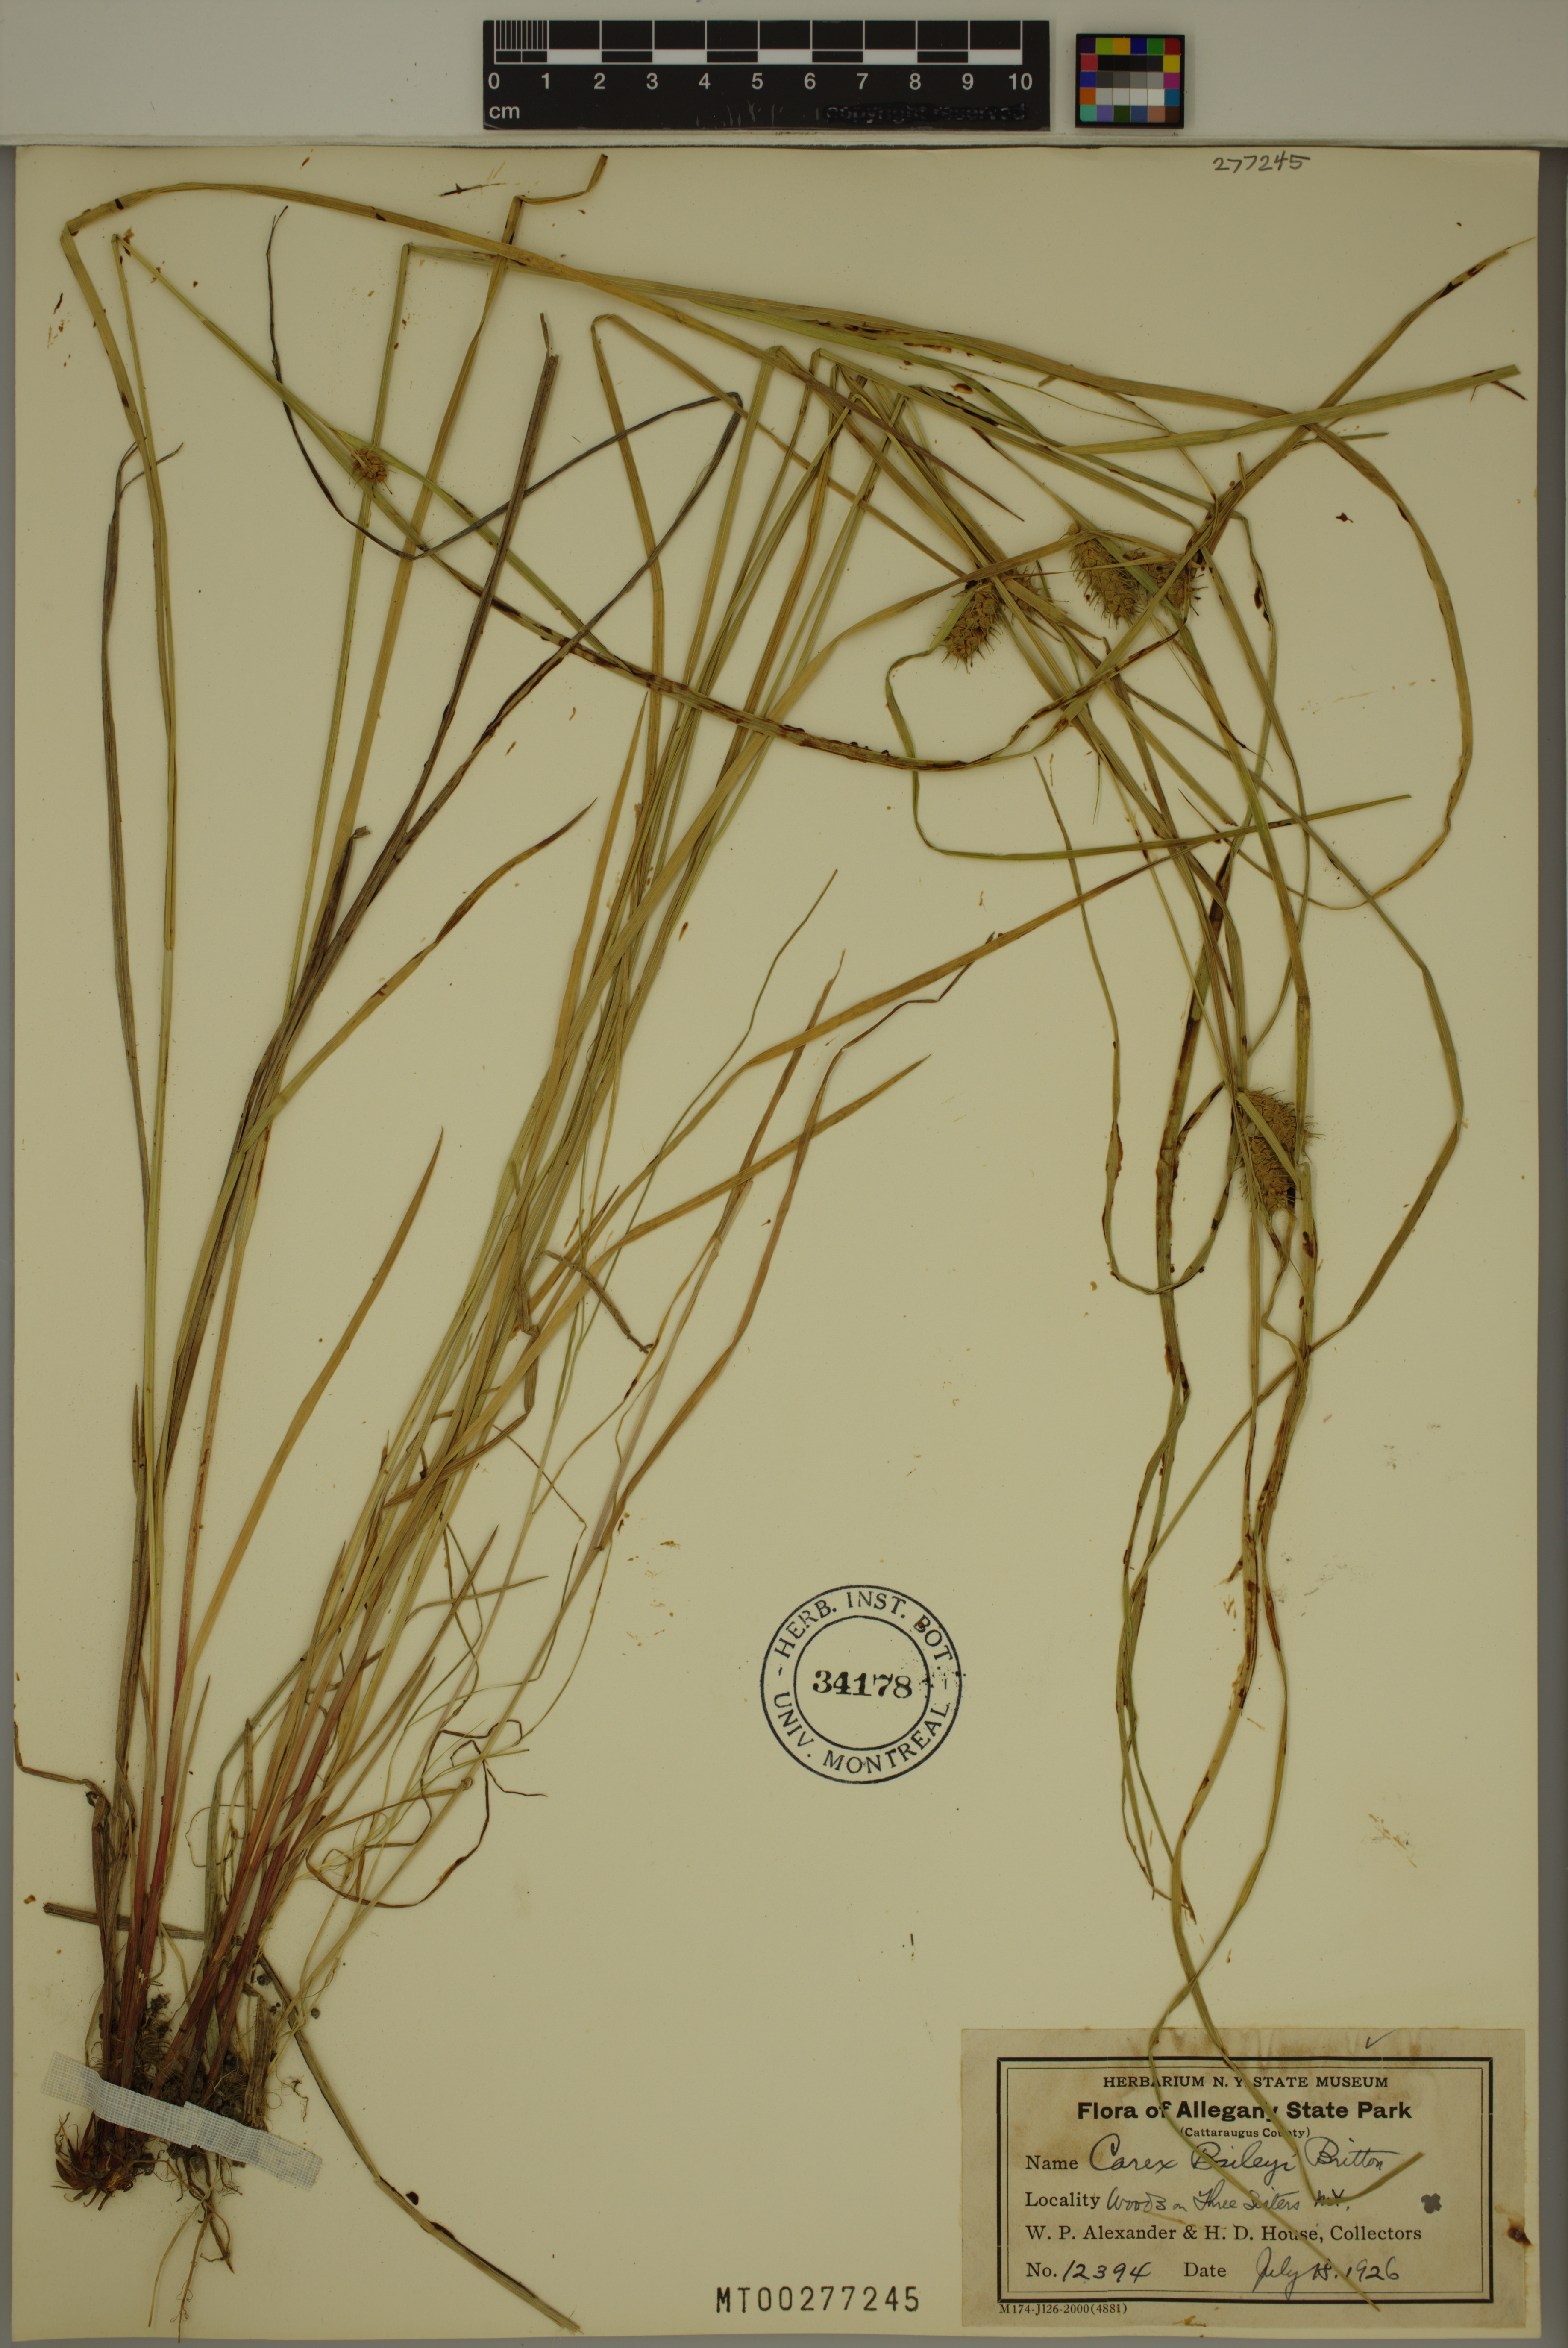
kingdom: Plantae
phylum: Tracheophyta
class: Liliopsida
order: Poales
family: Cyperaceae
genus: Carex
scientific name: Carex baileyi
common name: Bailey's sedge
